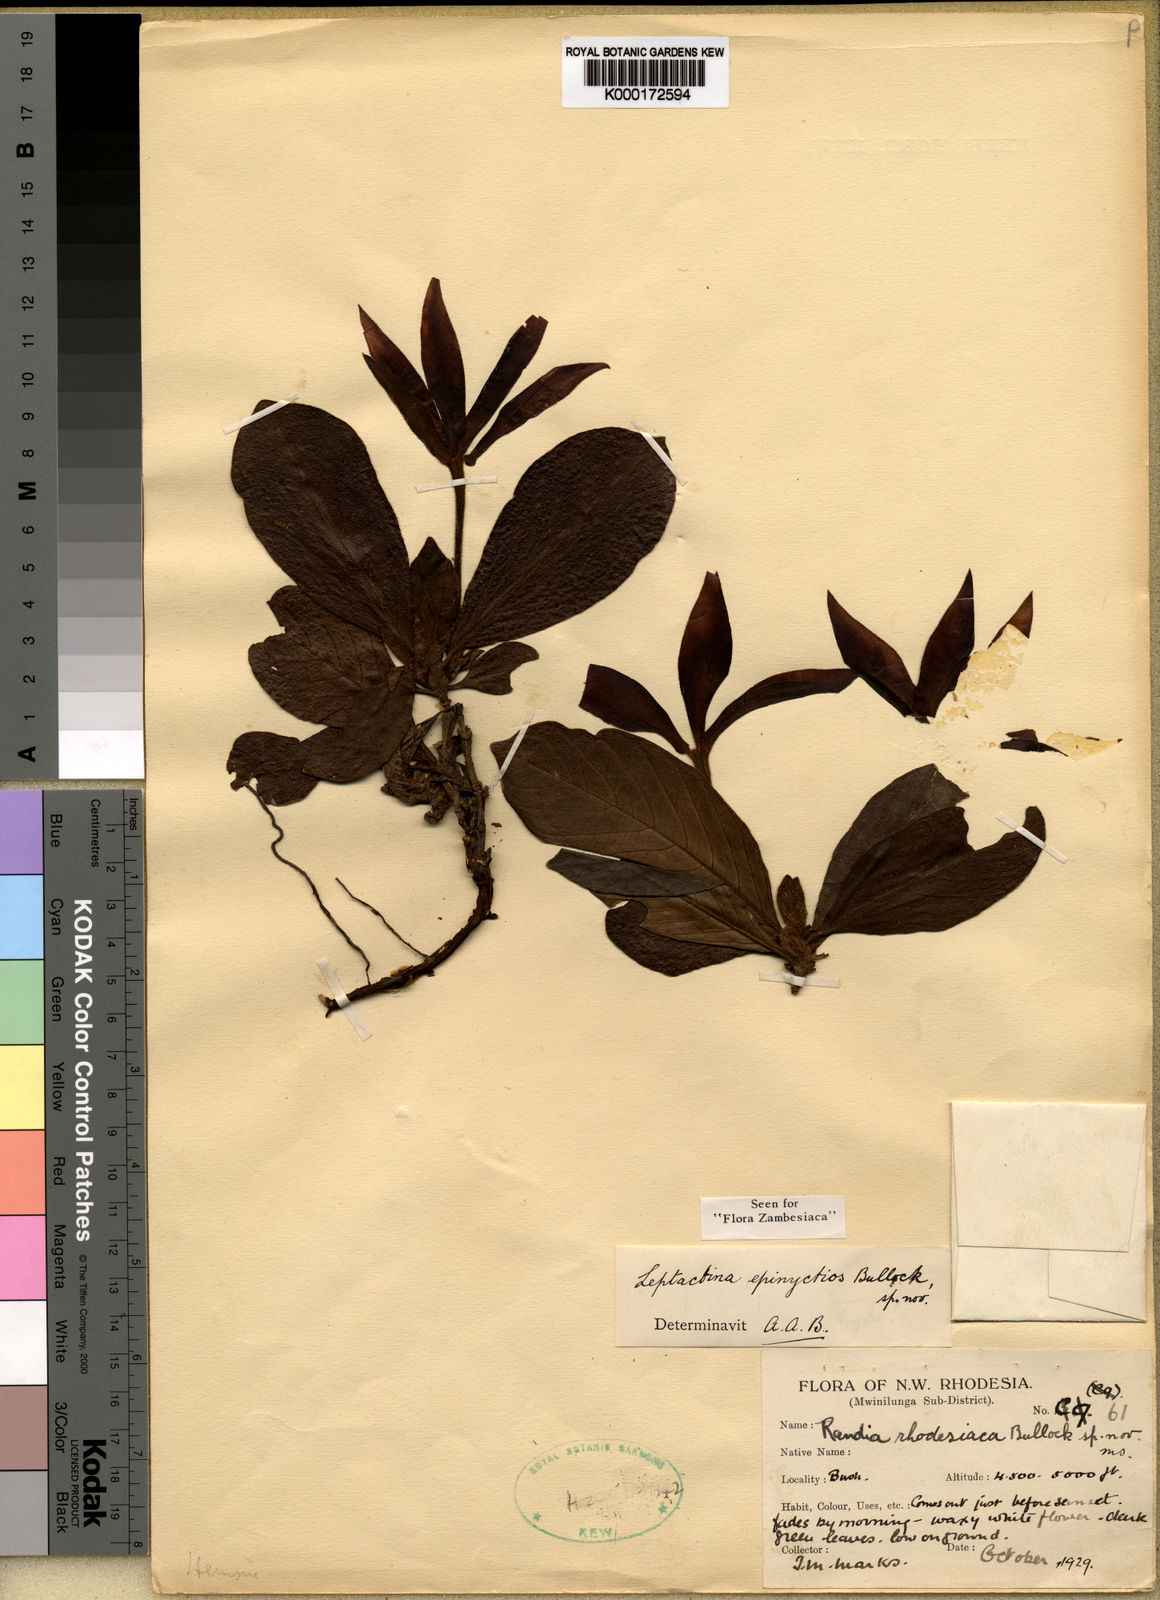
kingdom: Plantae
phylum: Tracheophyta
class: Magnoliopsida
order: Gentianales
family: Rubiaceae
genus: Leptactina
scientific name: Leptactina
